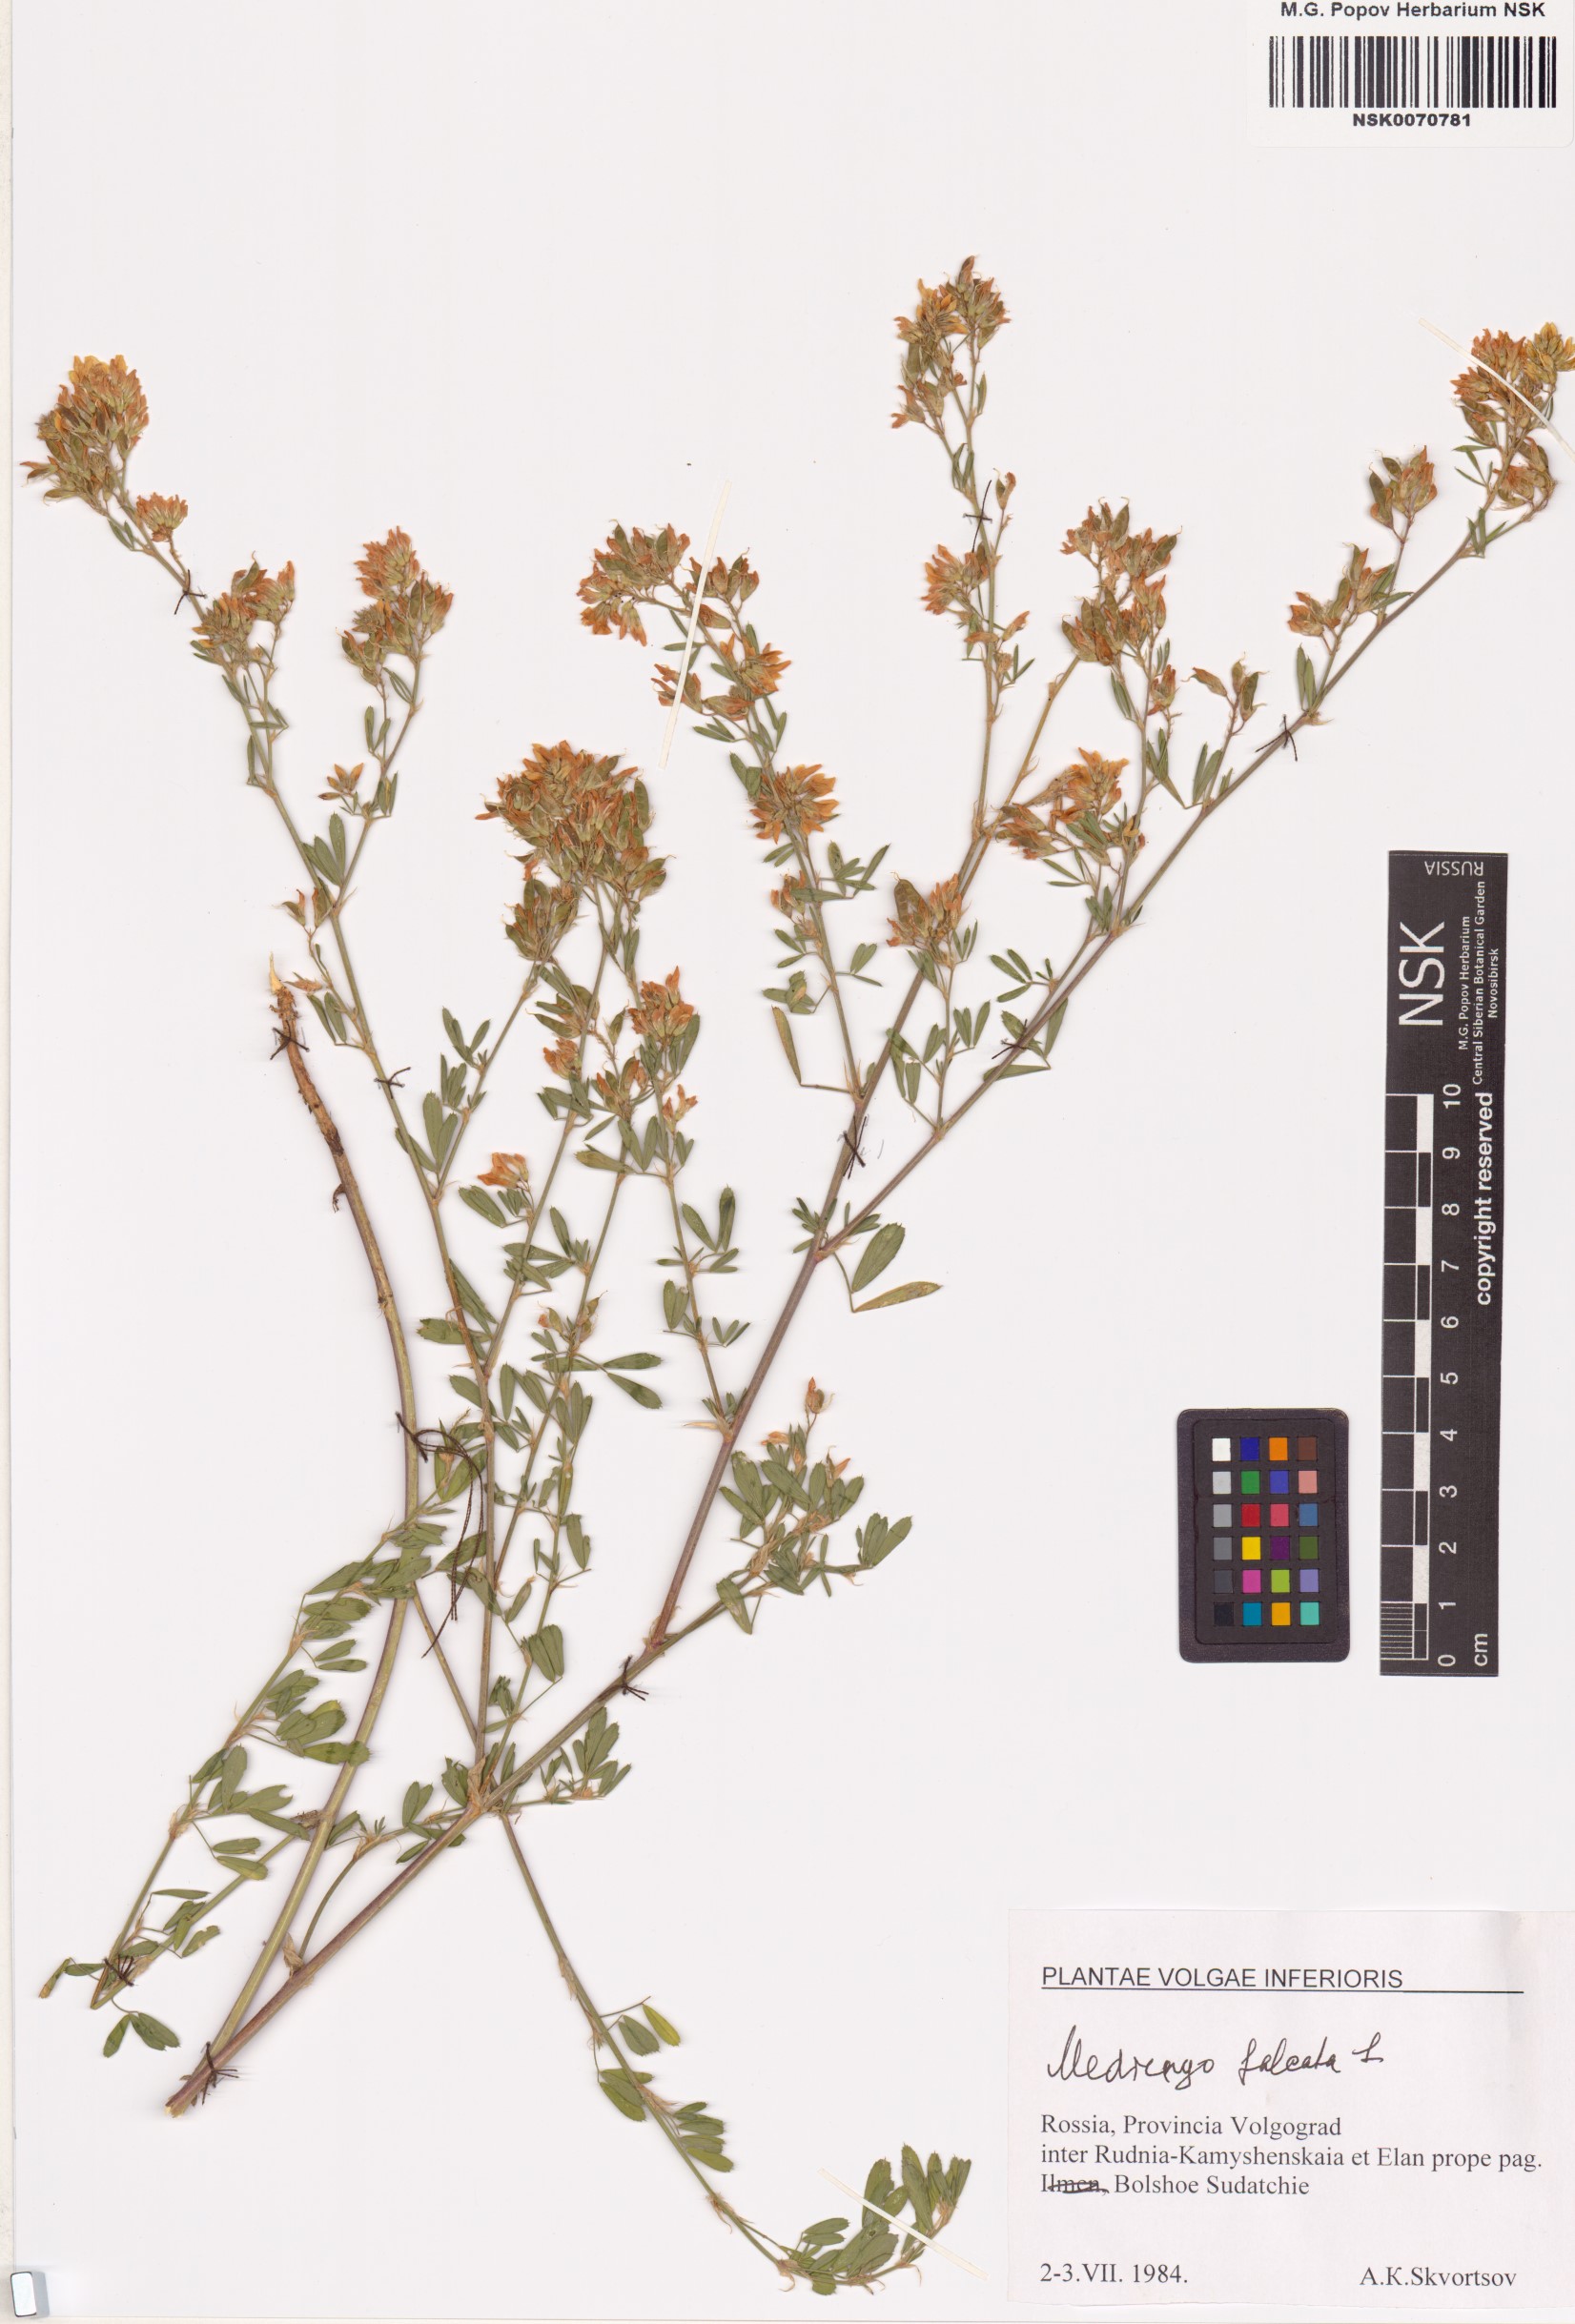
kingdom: Plantae
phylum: Tracheophyta
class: Magnoliopsida
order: Fabales
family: Fabaceae
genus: Medicago
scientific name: Medicago falcata
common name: Sickle medick
